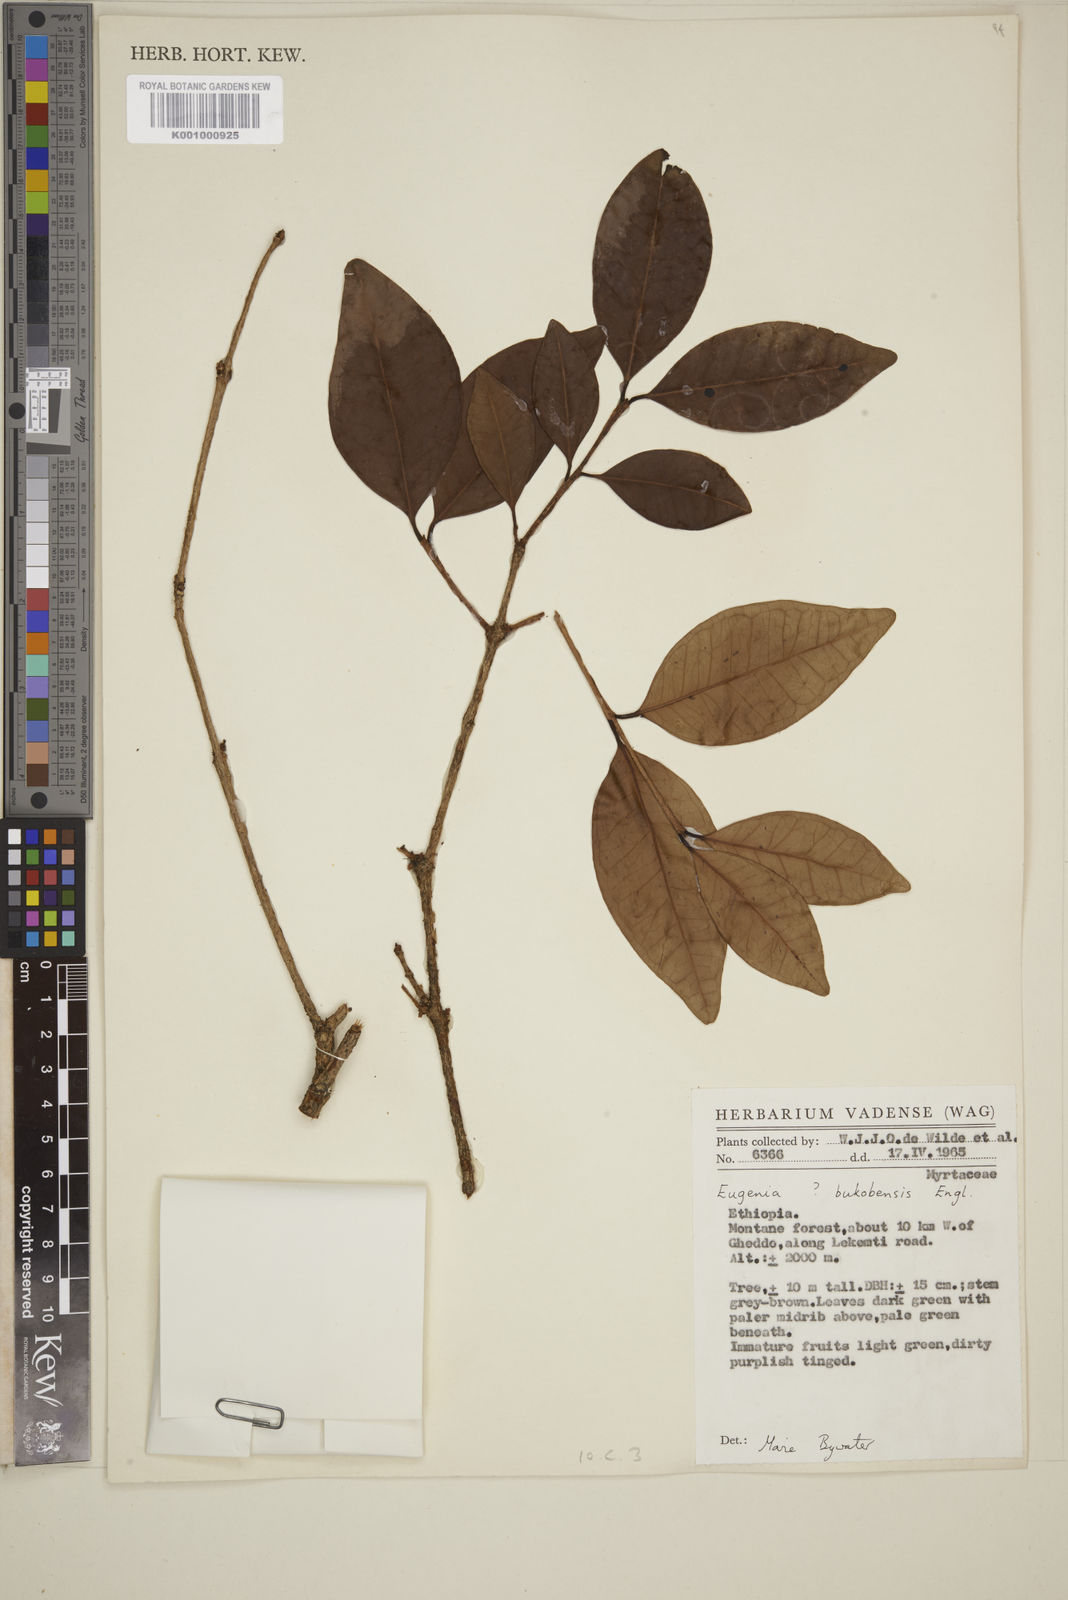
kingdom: Plantae
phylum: Tracheophyta
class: Magnoliopsida
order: Myrtales
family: Myrtaceae
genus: Eugenia
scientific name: Eugenia bukobensis
